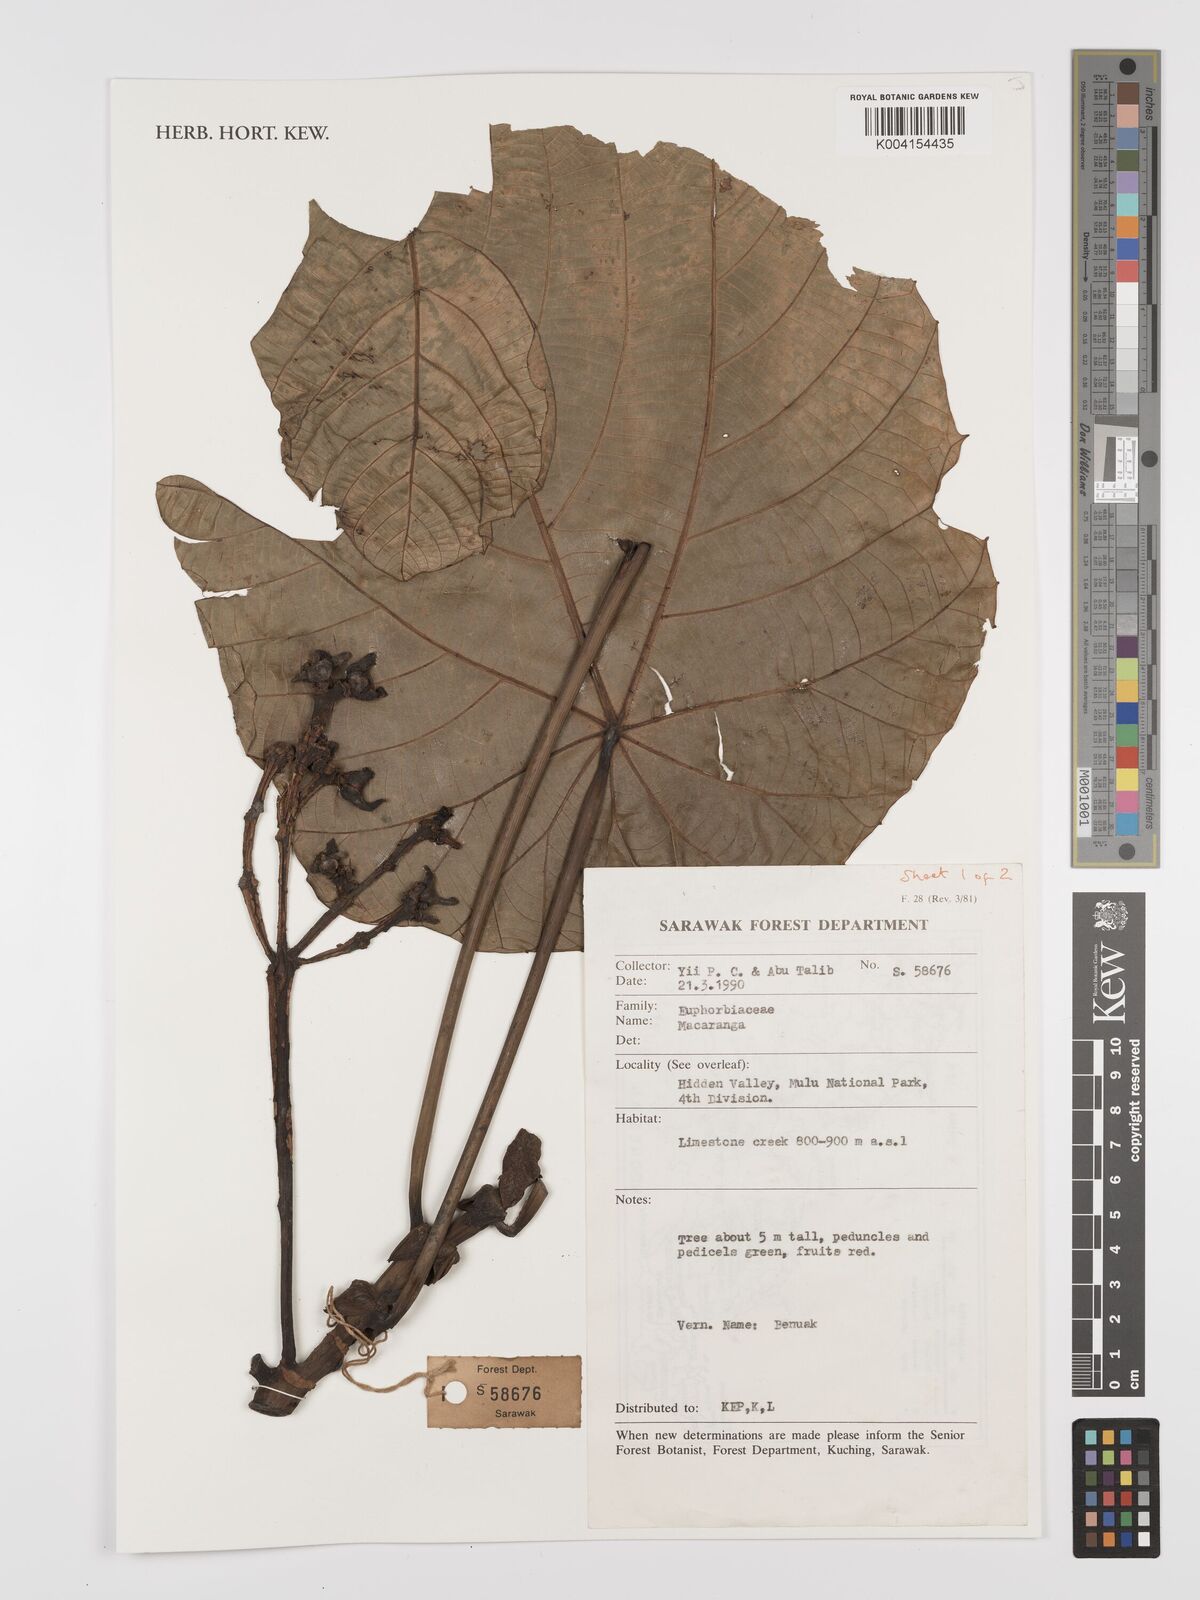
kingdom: Plantae
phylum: Tracheophyta
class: Magnoliopsida
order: Malpighiales
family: Euphorbiaceae
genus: Macaranga
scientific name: Macaranga
